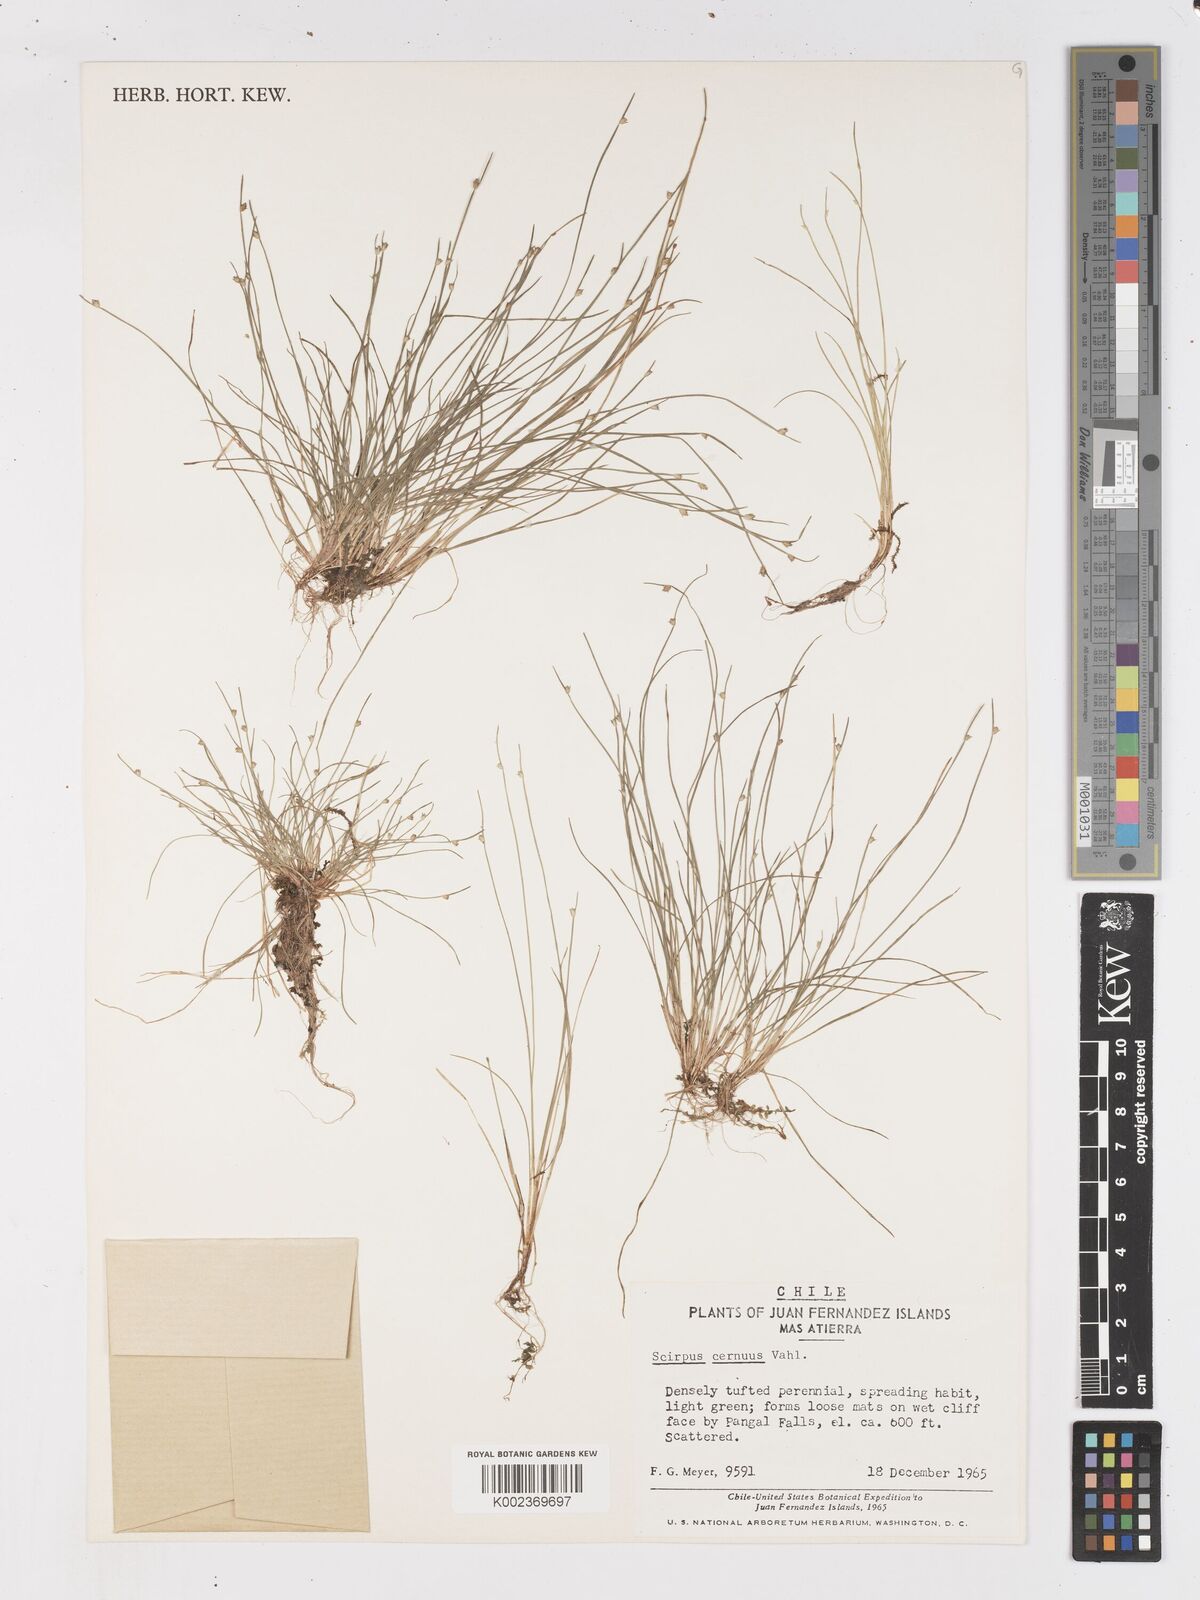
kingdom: Plantae
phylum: Tracheophyta
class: Liliopsida
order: Poales
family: Cyperaceae
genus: Isolepis
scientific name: Isolepis cernua
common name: Slender club-rush
